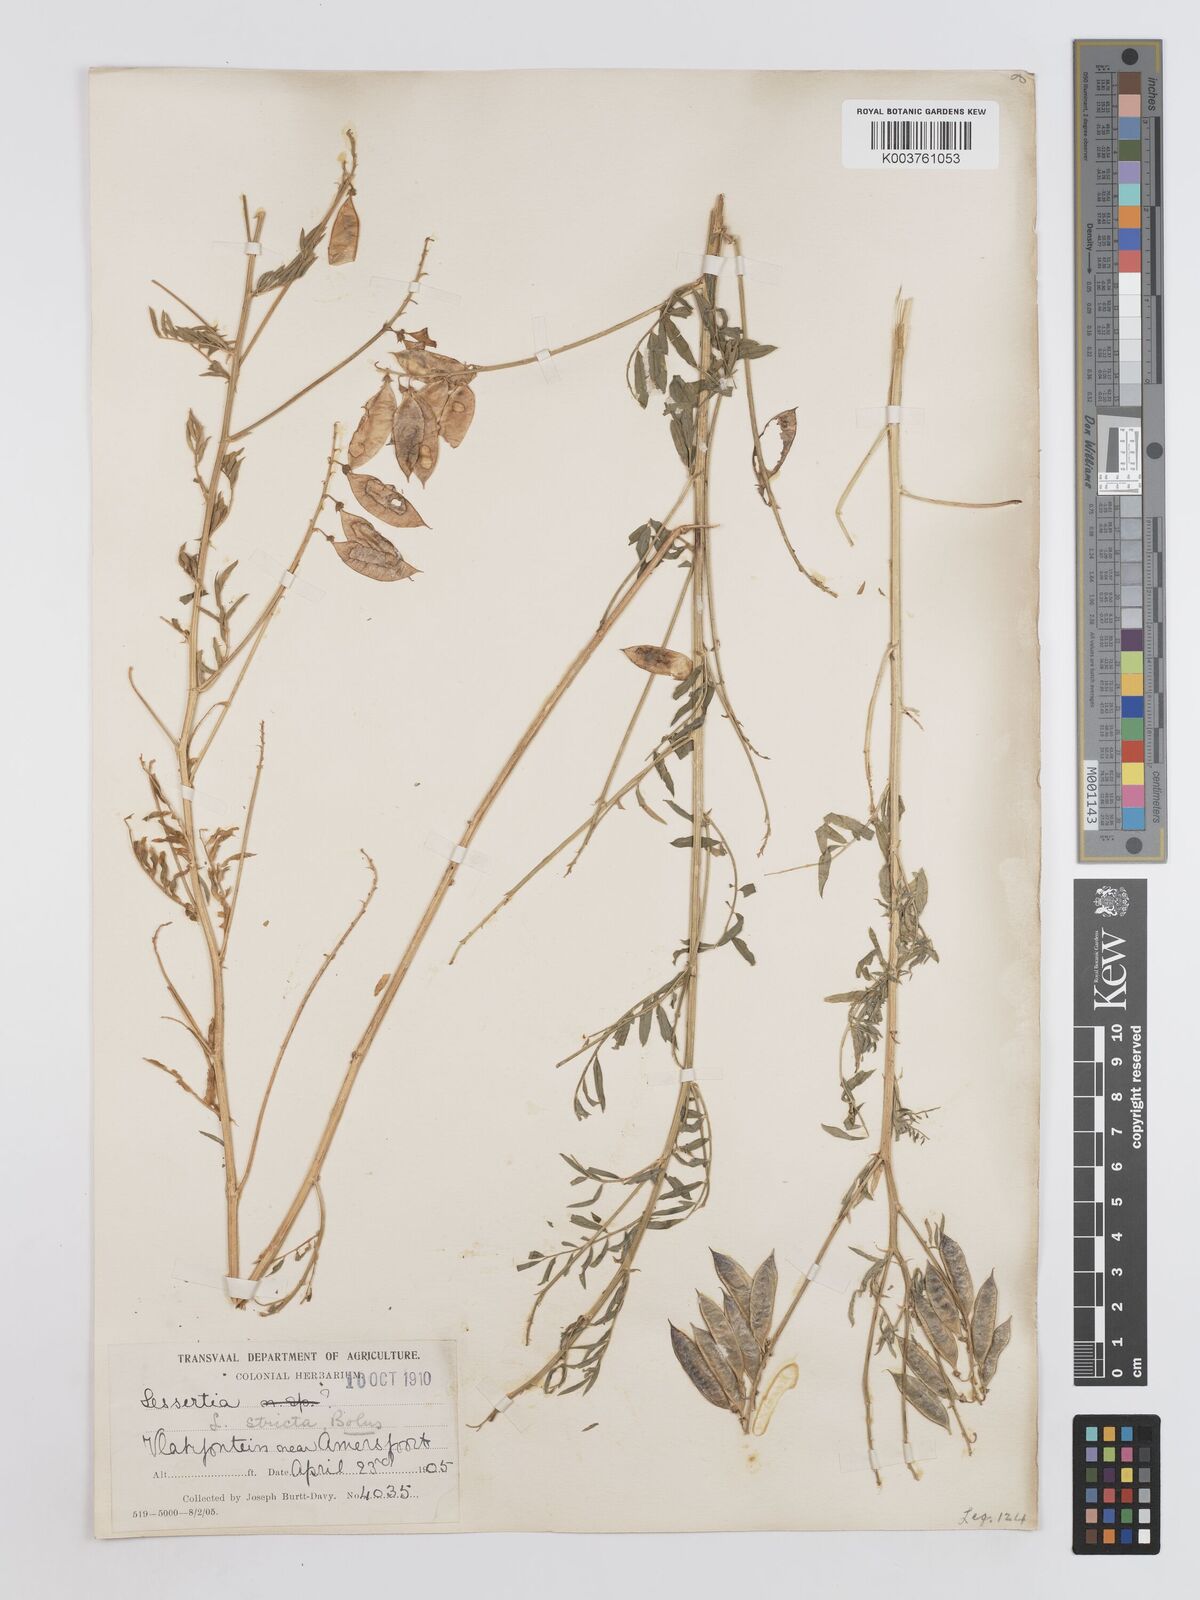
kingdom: Plantae
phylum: Tracheophyta
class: Magnoliopsida
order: Fabales
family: Fabaceae
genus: Lessertia
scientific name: Lessertia stricta
